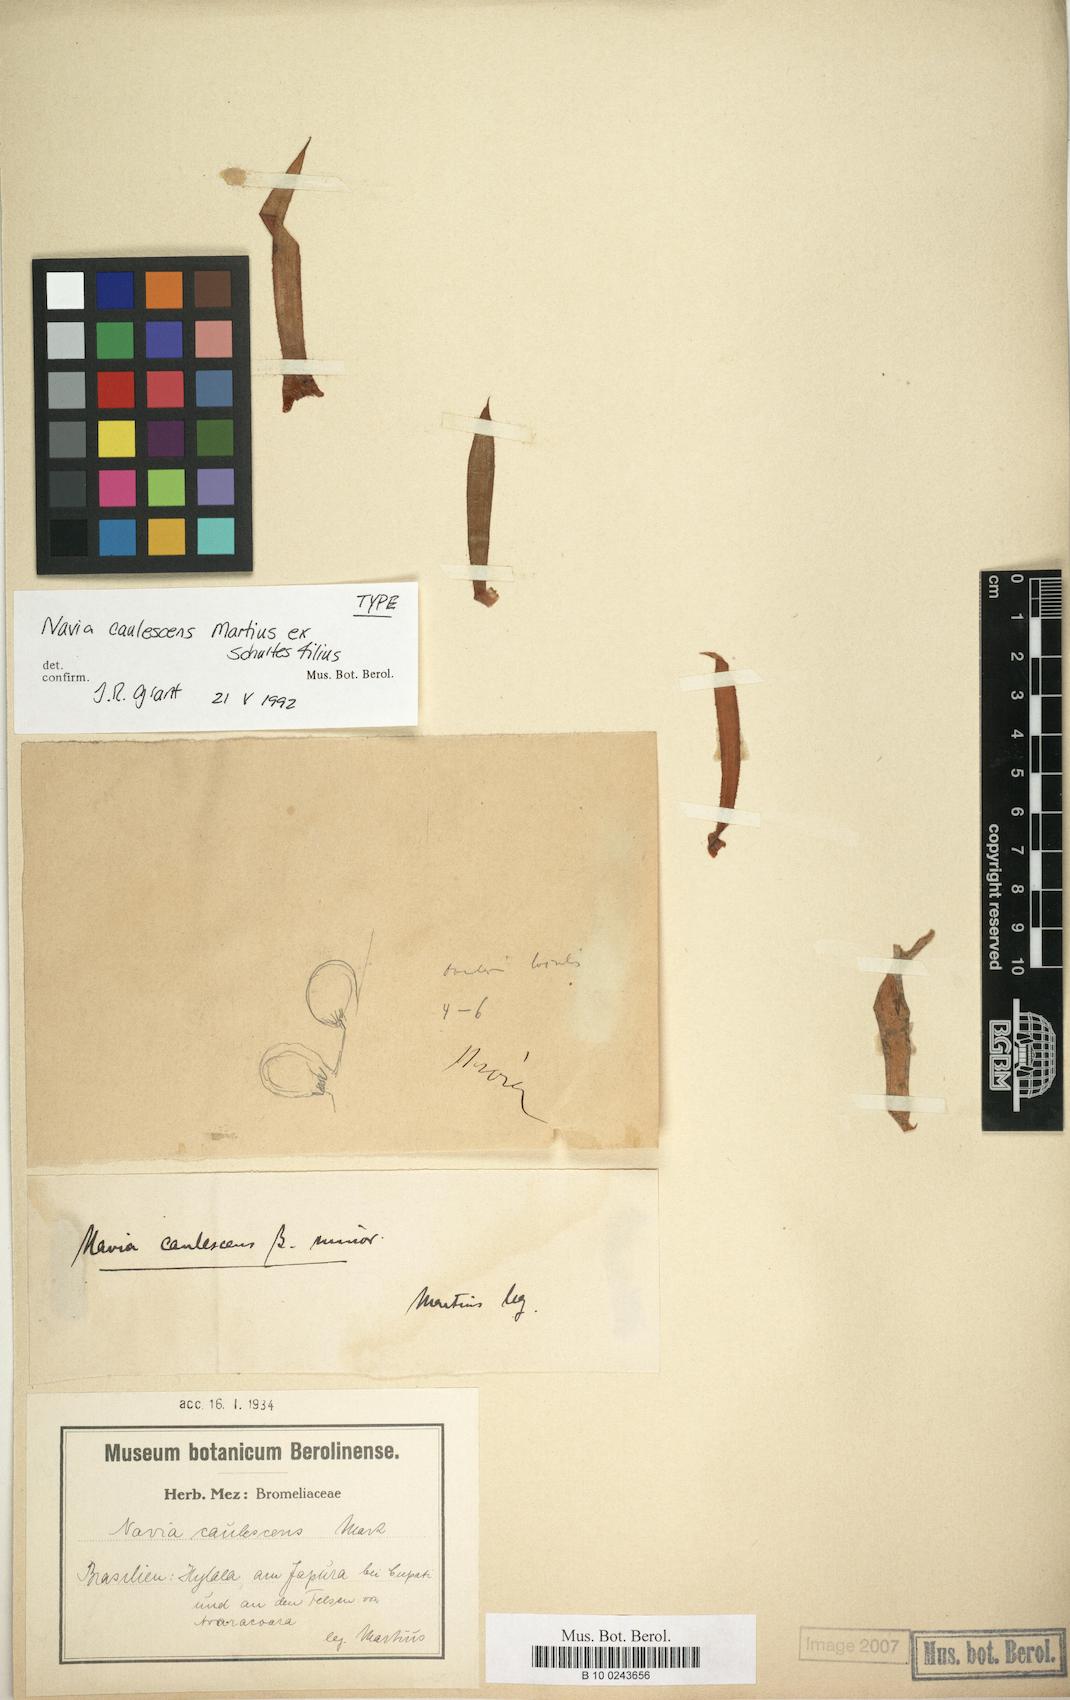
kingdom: Plantae
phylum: Tracheophyta
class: Liliopsida
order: Poales
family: Bromeliaceae
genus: Navia
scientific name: Navia caulescens
